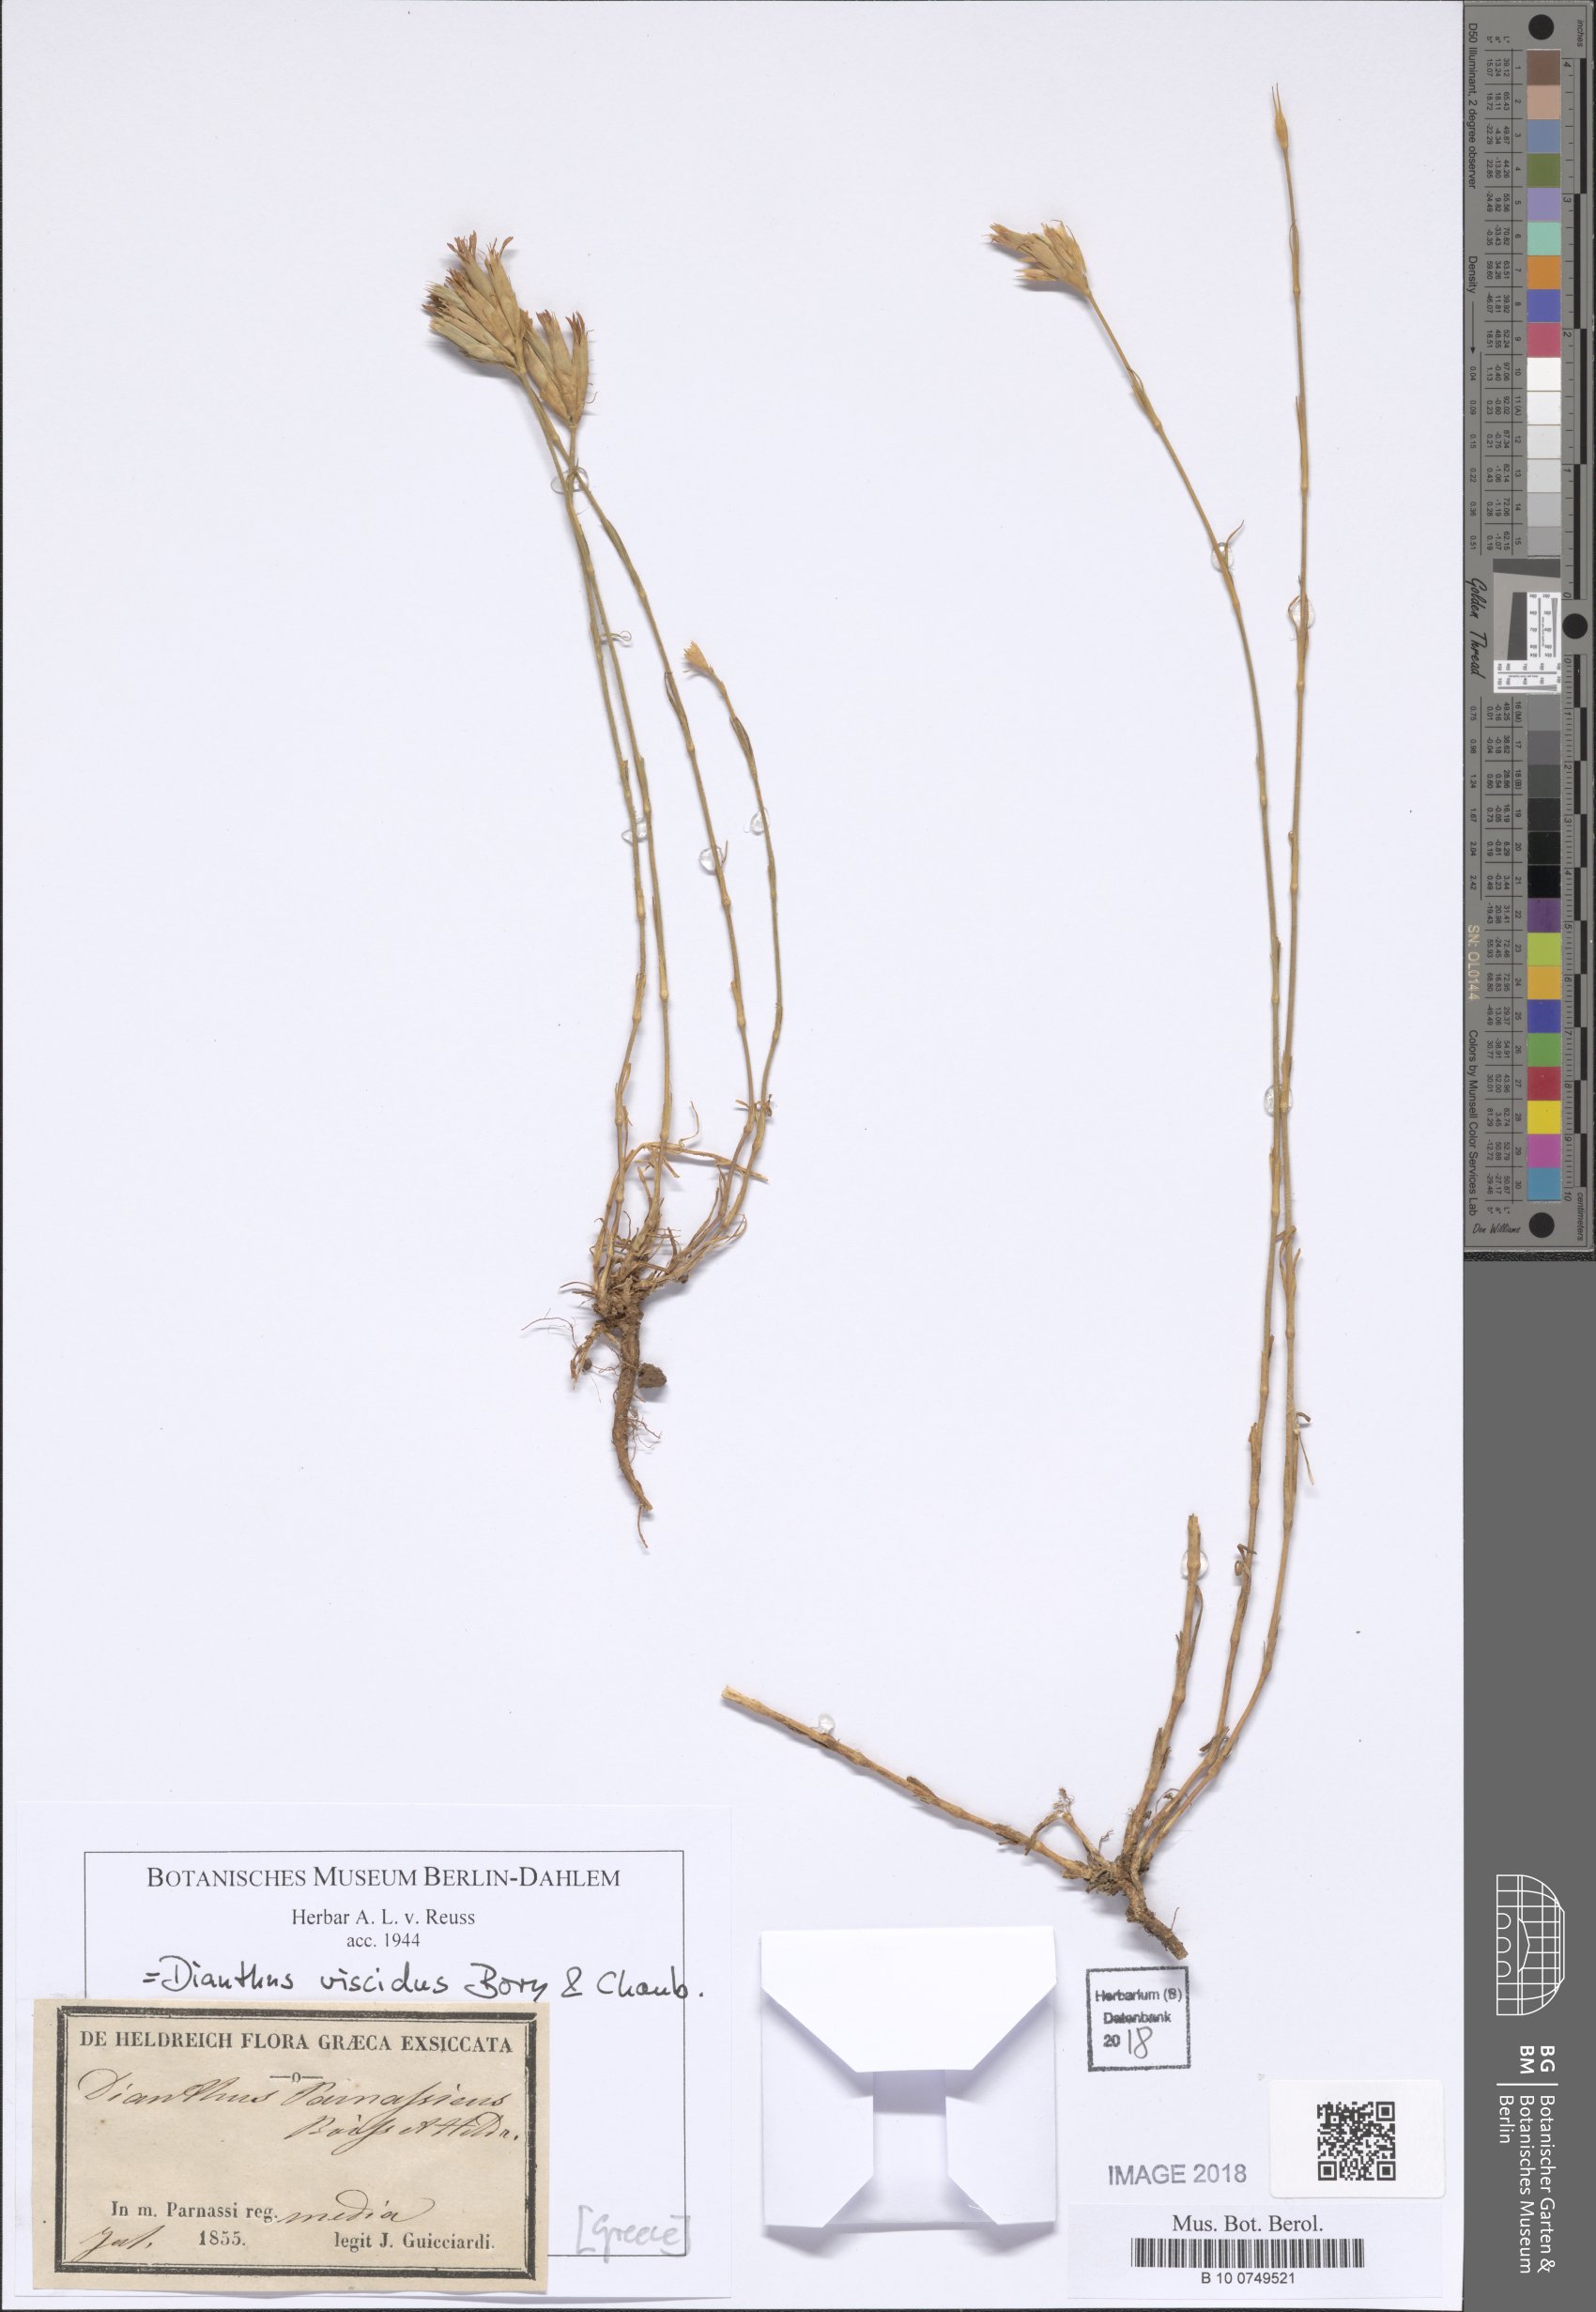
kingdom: Plantae
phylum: Tracheophyta
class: Magnoliopsida
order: Caryophyllales
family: Caryophyllaceae
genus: Dianthus
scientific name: Dianthus viscidus
